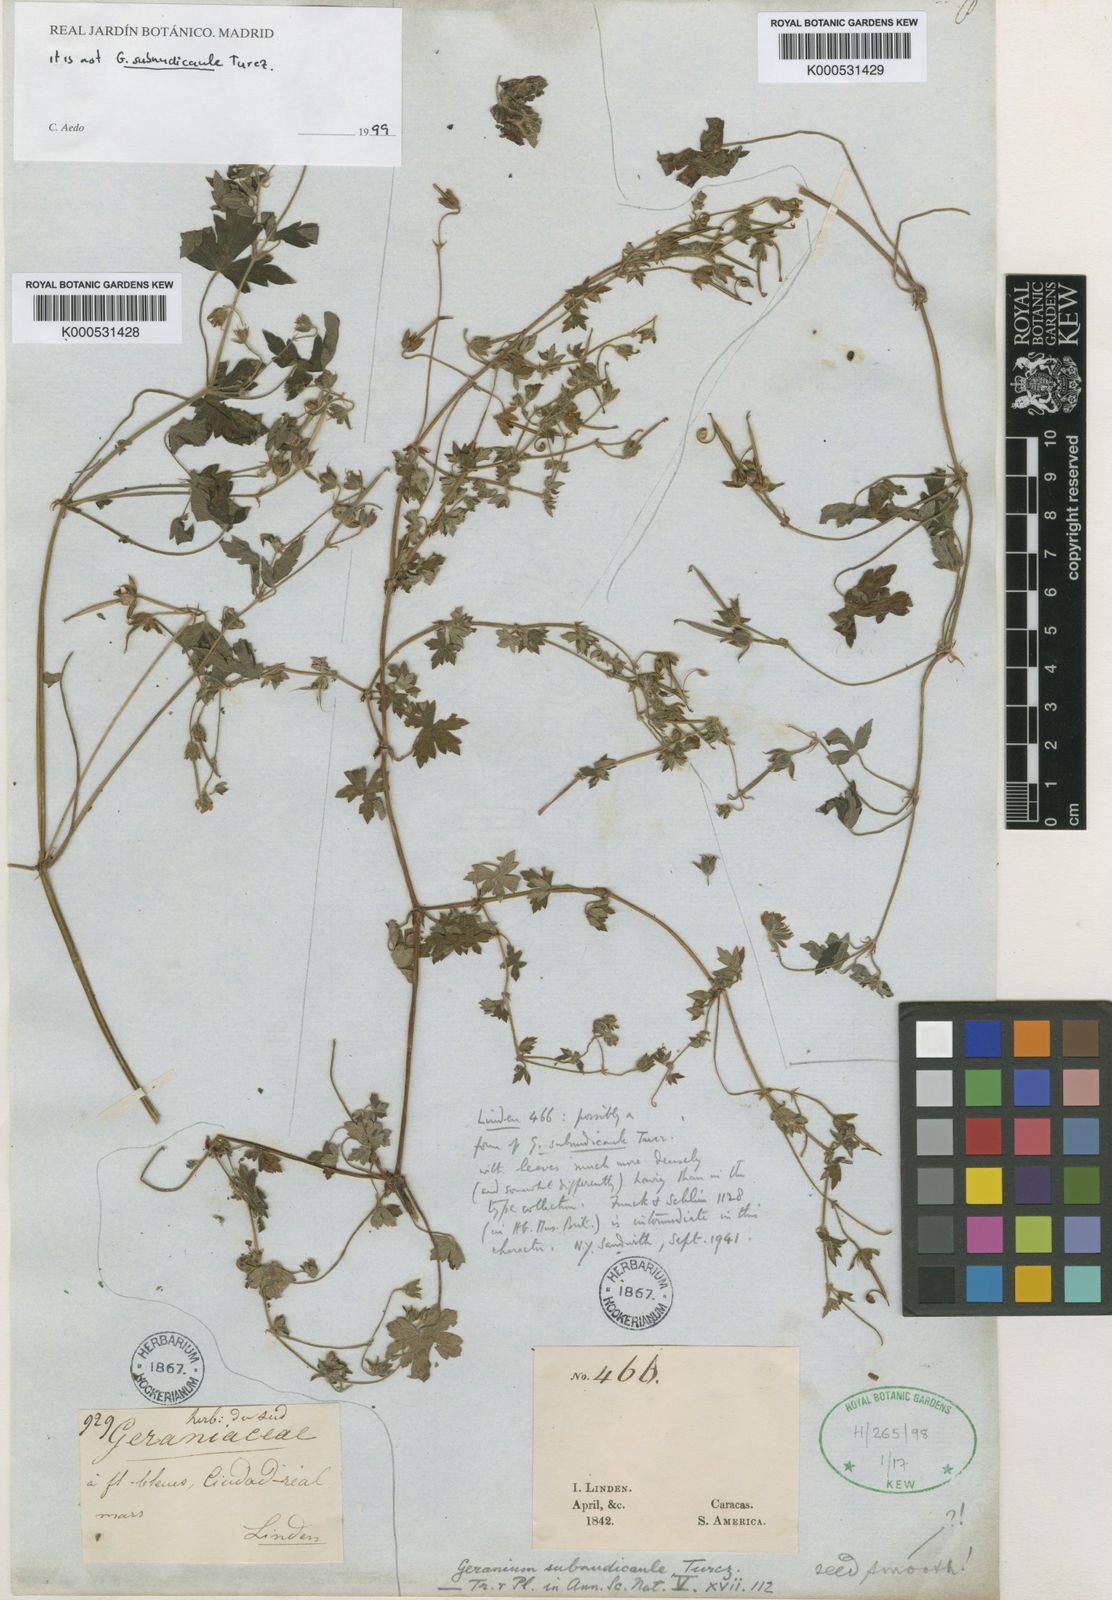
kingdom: Plantae
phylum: Tracheophyta
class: Magnoliopsida
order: Geraniales
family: Geraniaceae
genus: Geranium
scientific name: Geranium subnudicaule
